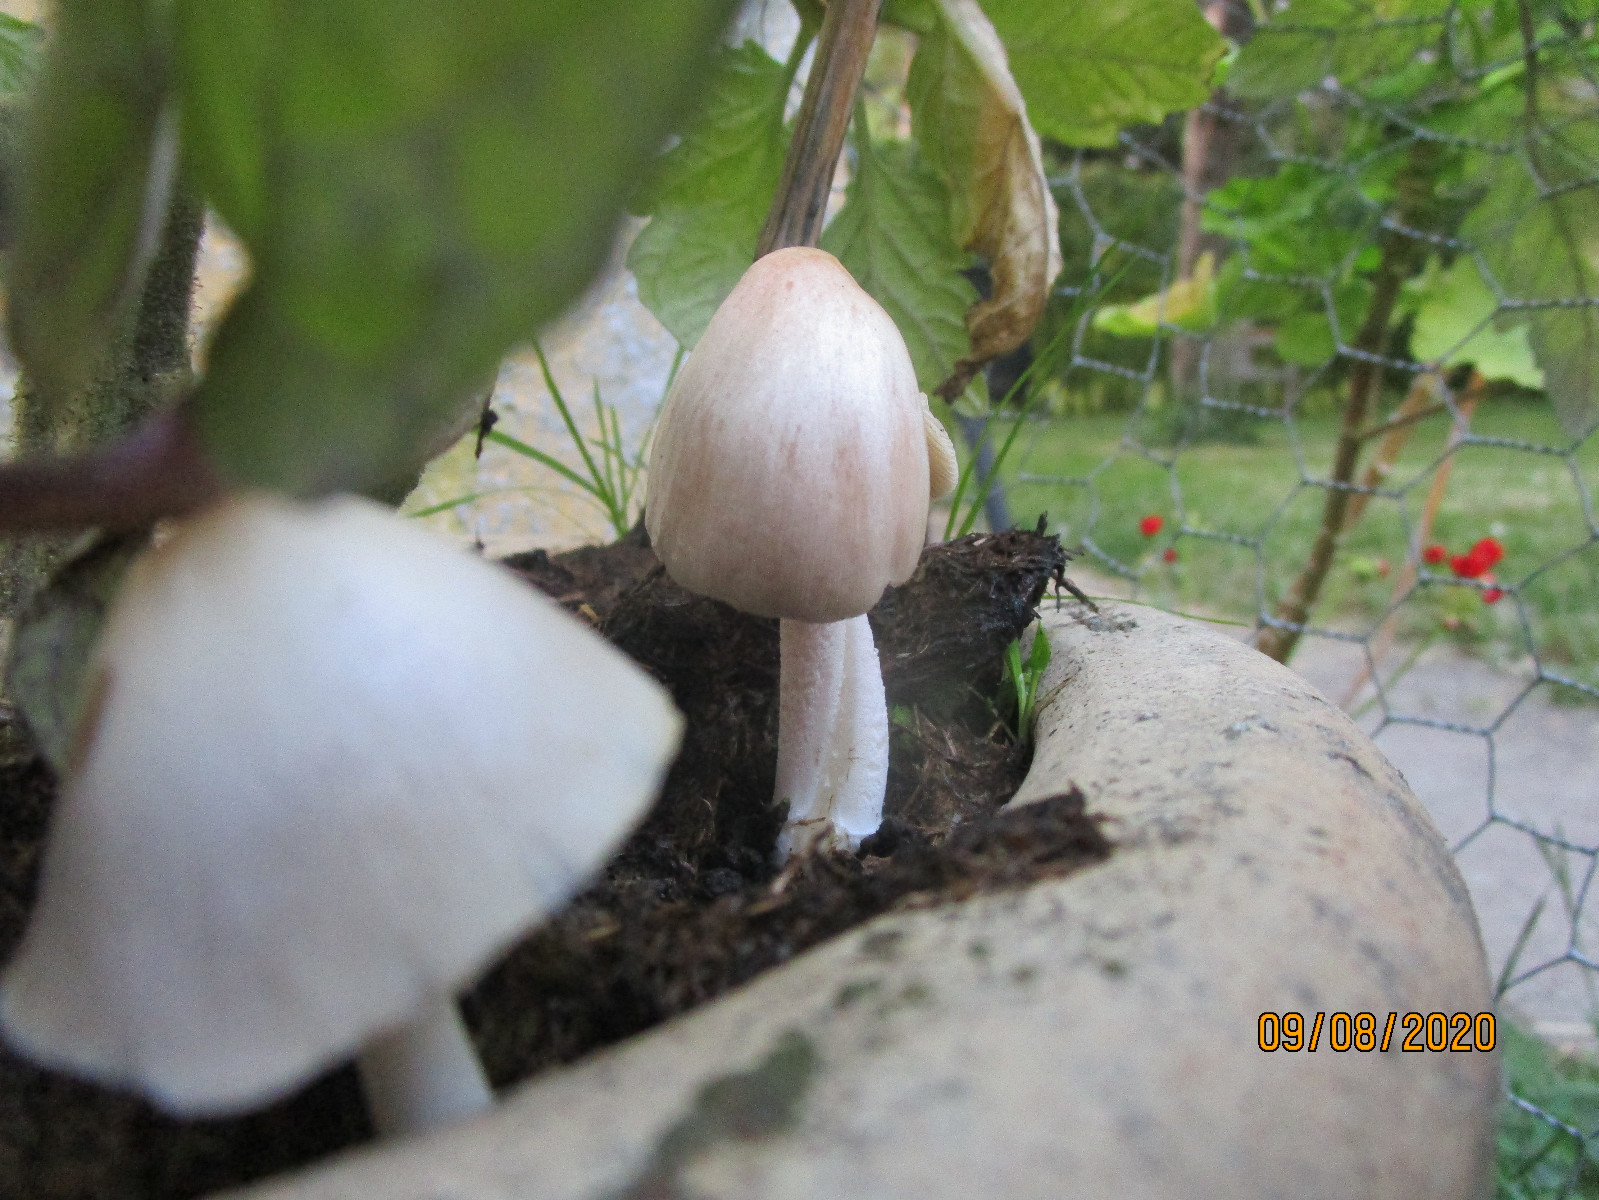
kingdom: Fungi
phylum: Basidiomycota
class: Agaricomycetes
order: Agaricales
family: Bolbitiaceae
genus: Bolbitius
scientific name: Bolbitius coprophilus
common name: rosa gulhat
